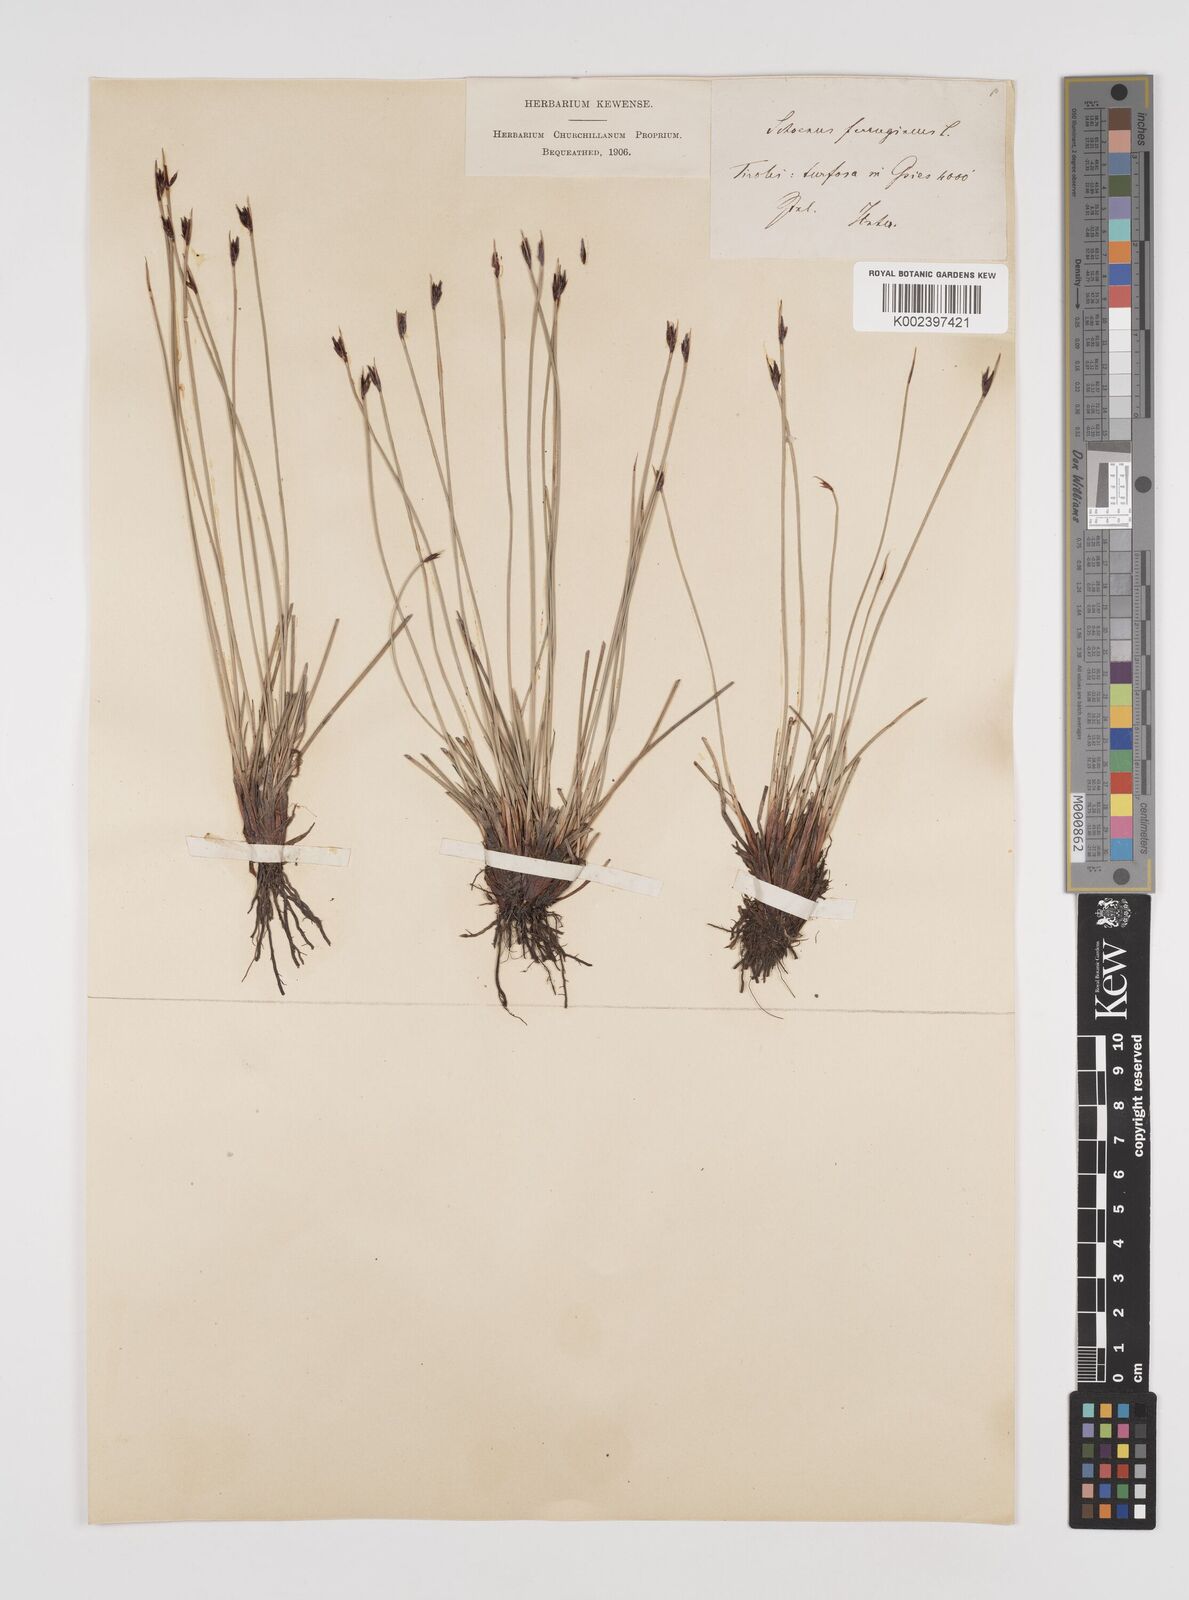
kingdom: Plantae
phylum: Tracheophyta
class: Liliopsida
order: Poales
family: Cyperaceae
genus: Schoenus
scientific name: Schoenus ferrugineus
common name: Brown bog-rush
